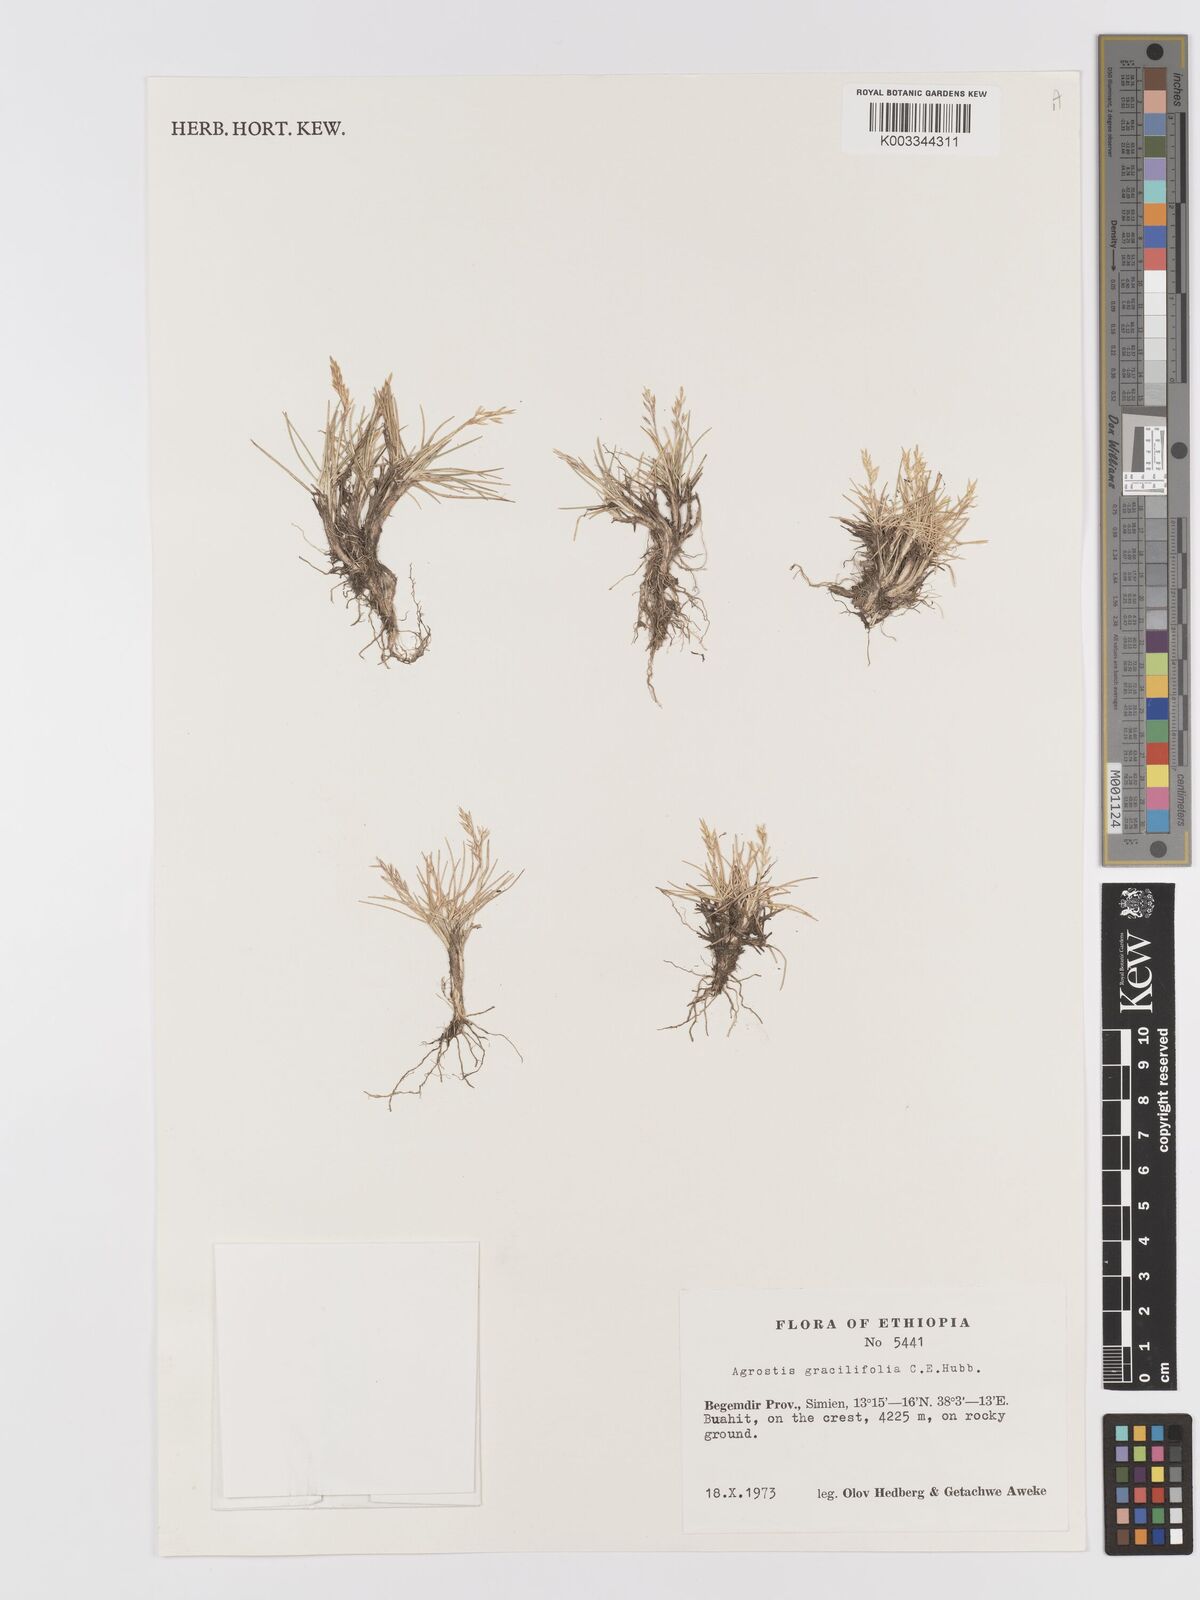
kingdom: Plantae
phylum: Tracheophyta
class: Liliopsida
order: Poales
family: Poaceae
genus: Agrostis
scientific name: Agrostis gracilifolia
